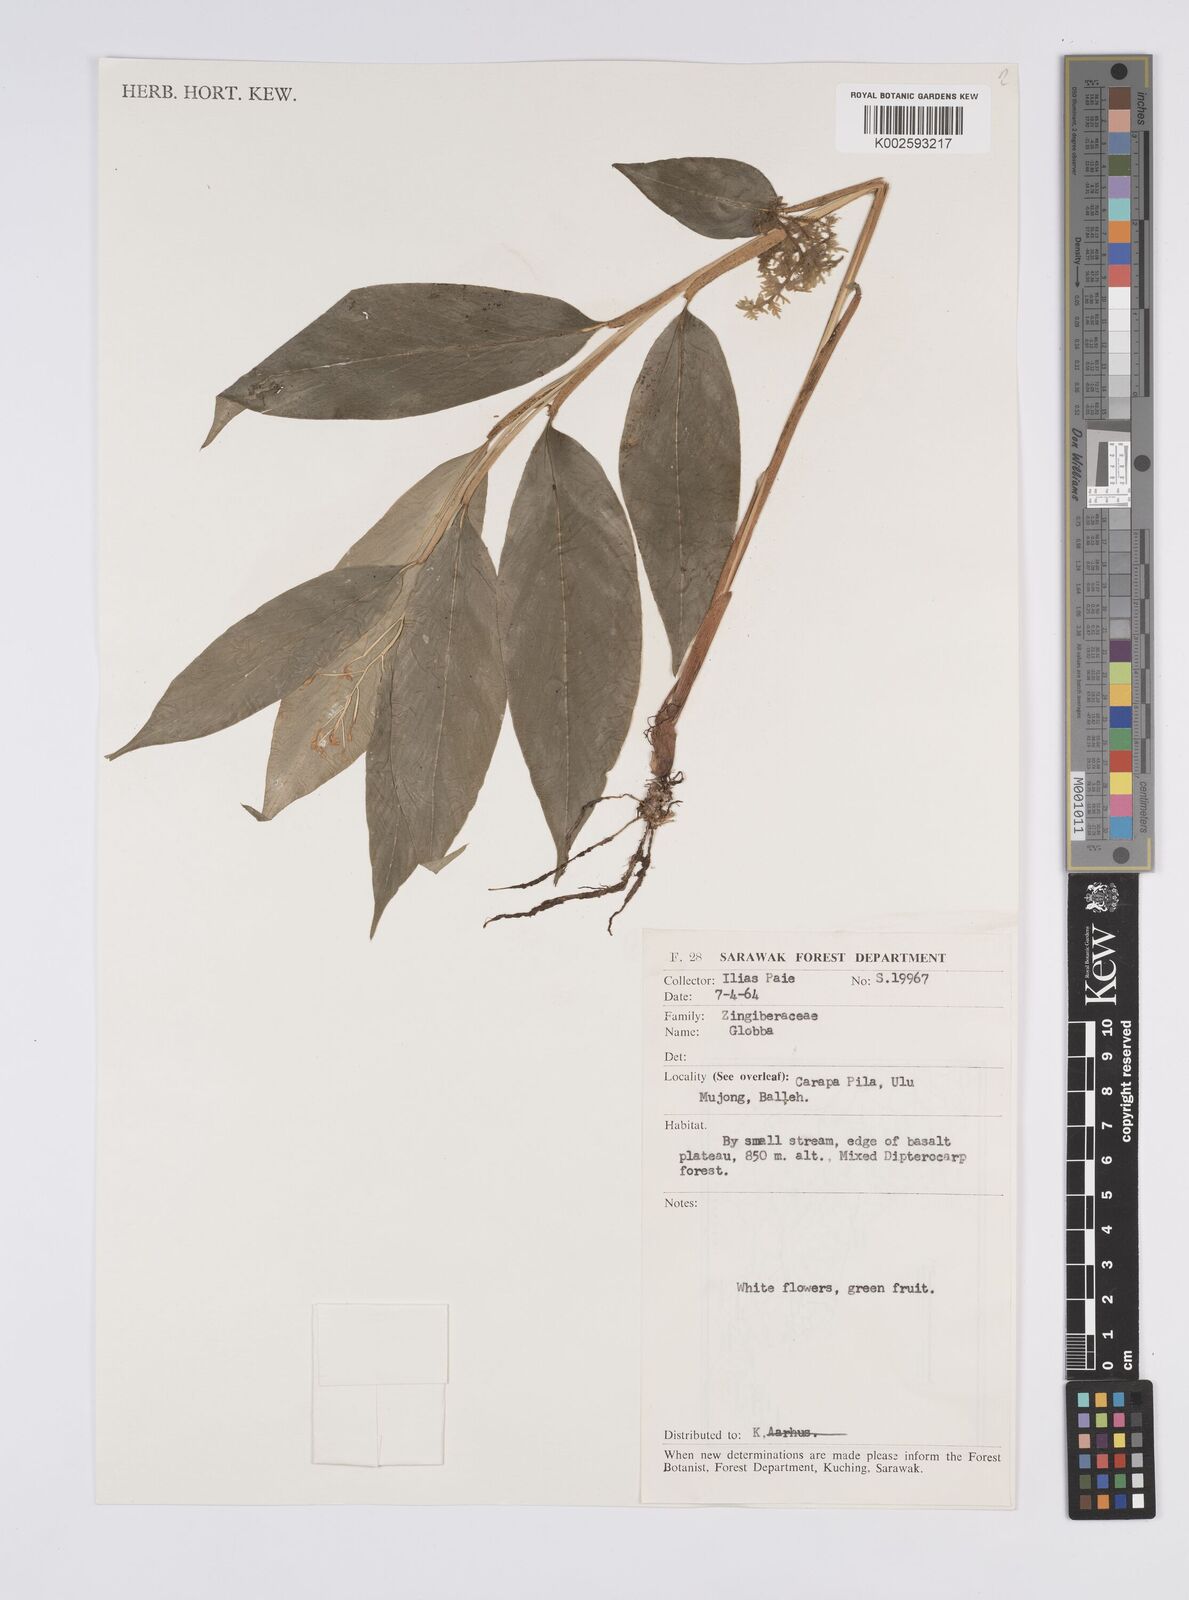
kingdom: Plantae
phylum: Tracheophyta
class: Liliopsida
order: Zingiberales
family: Zingiberaceae
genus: Globba
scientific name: Globba
